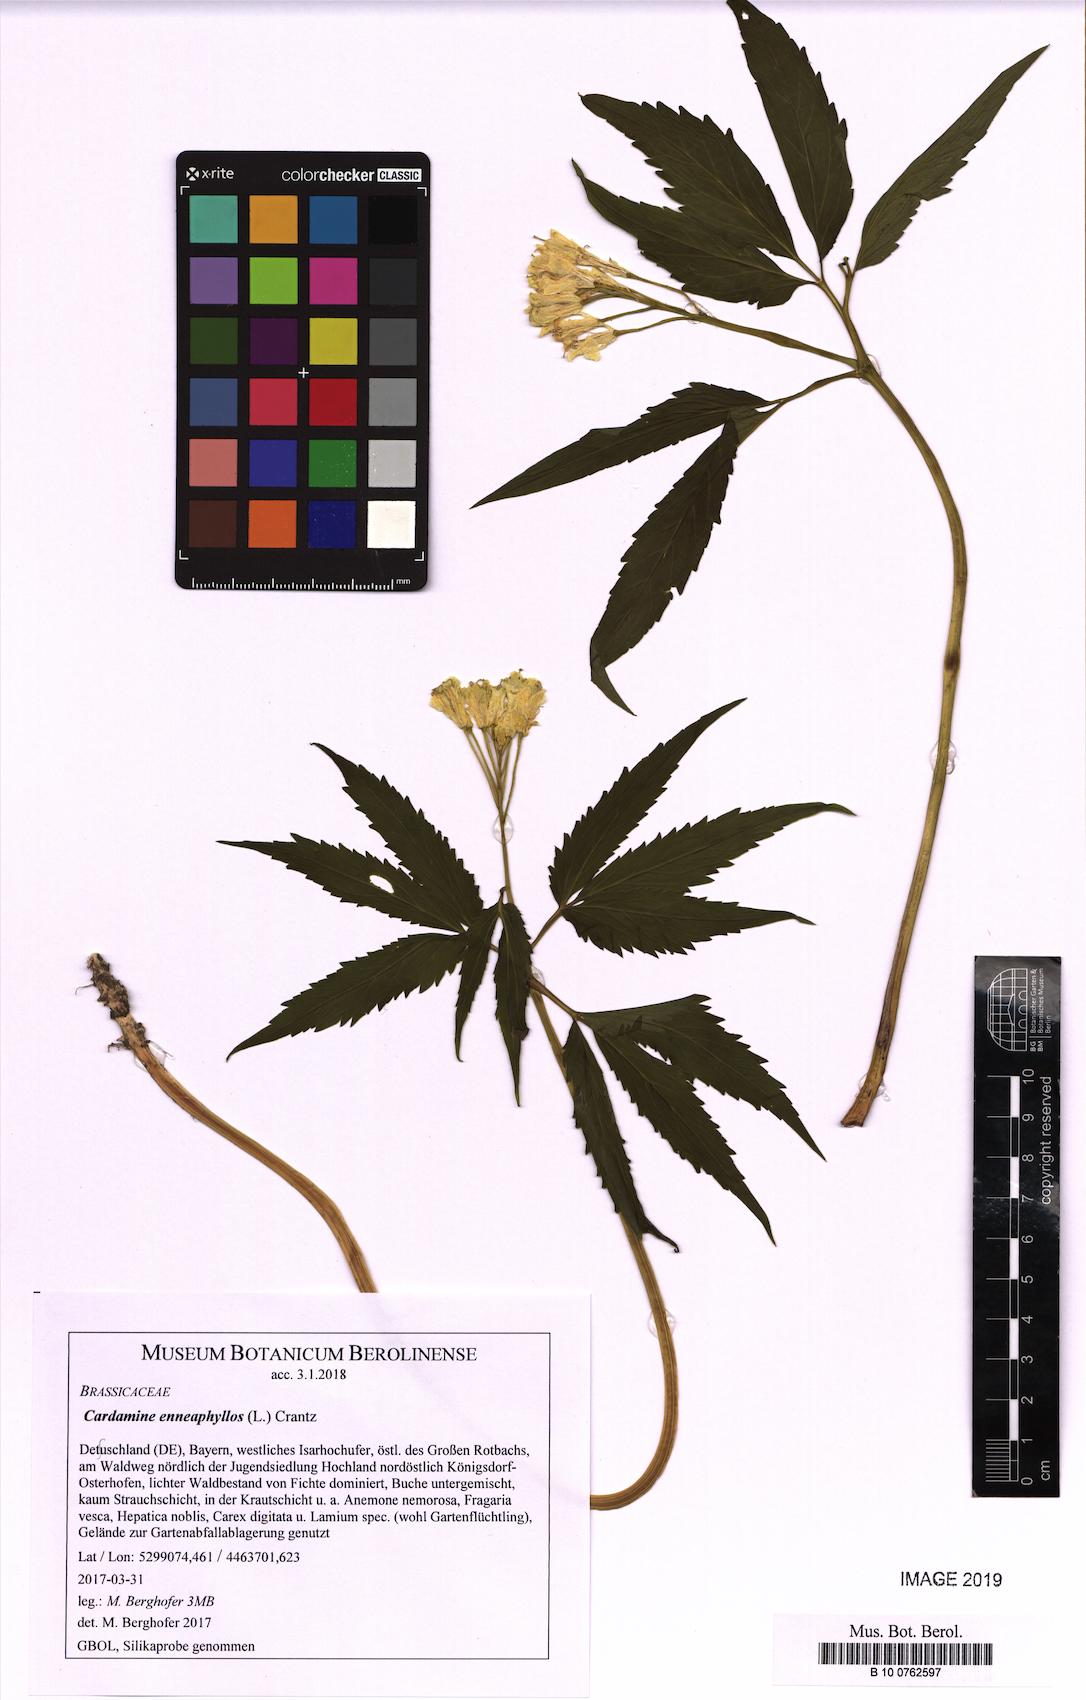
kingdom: Plantae
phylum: Tracheophyta
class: Magnoliopsida
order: Brassicales
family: Brassicaceae
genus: Cardamine
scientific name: Cardamine enneaphyllos
